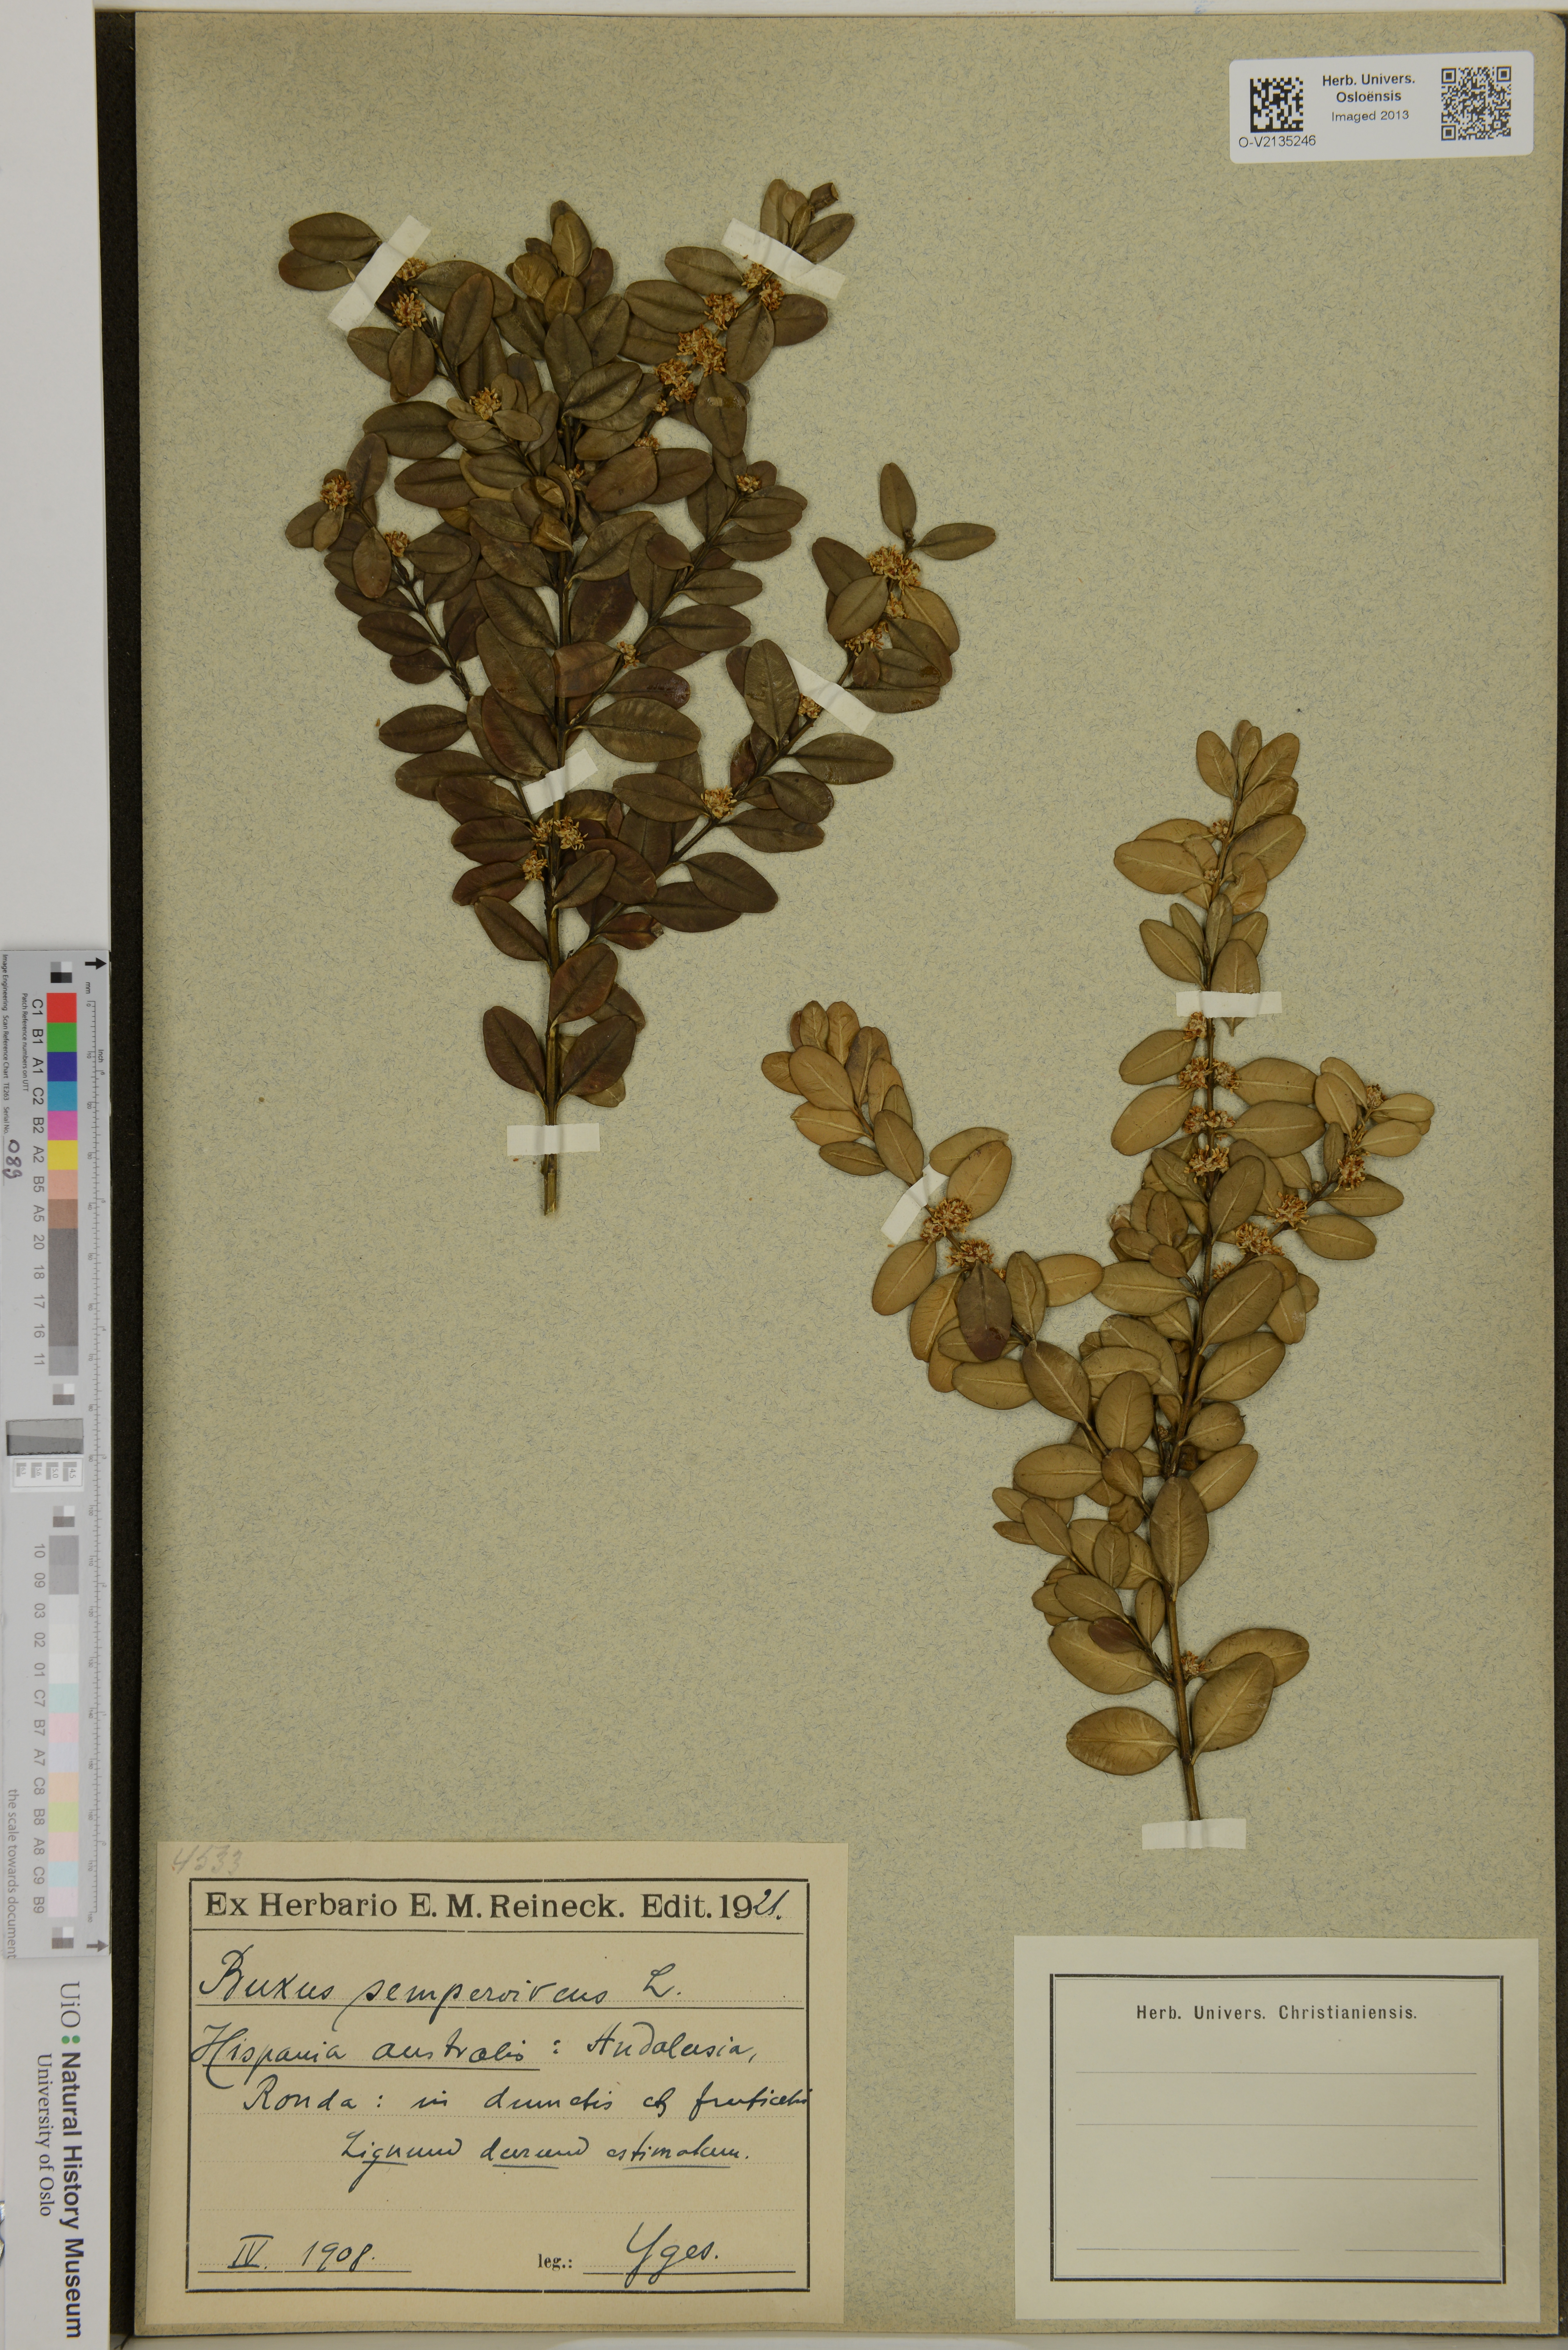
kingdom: Plantae
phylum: Tracheophyta
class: Magnoliopsida
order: Buxales
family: Buxaceae
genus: Buxus
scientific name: Buxus sempervirens
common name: Box
